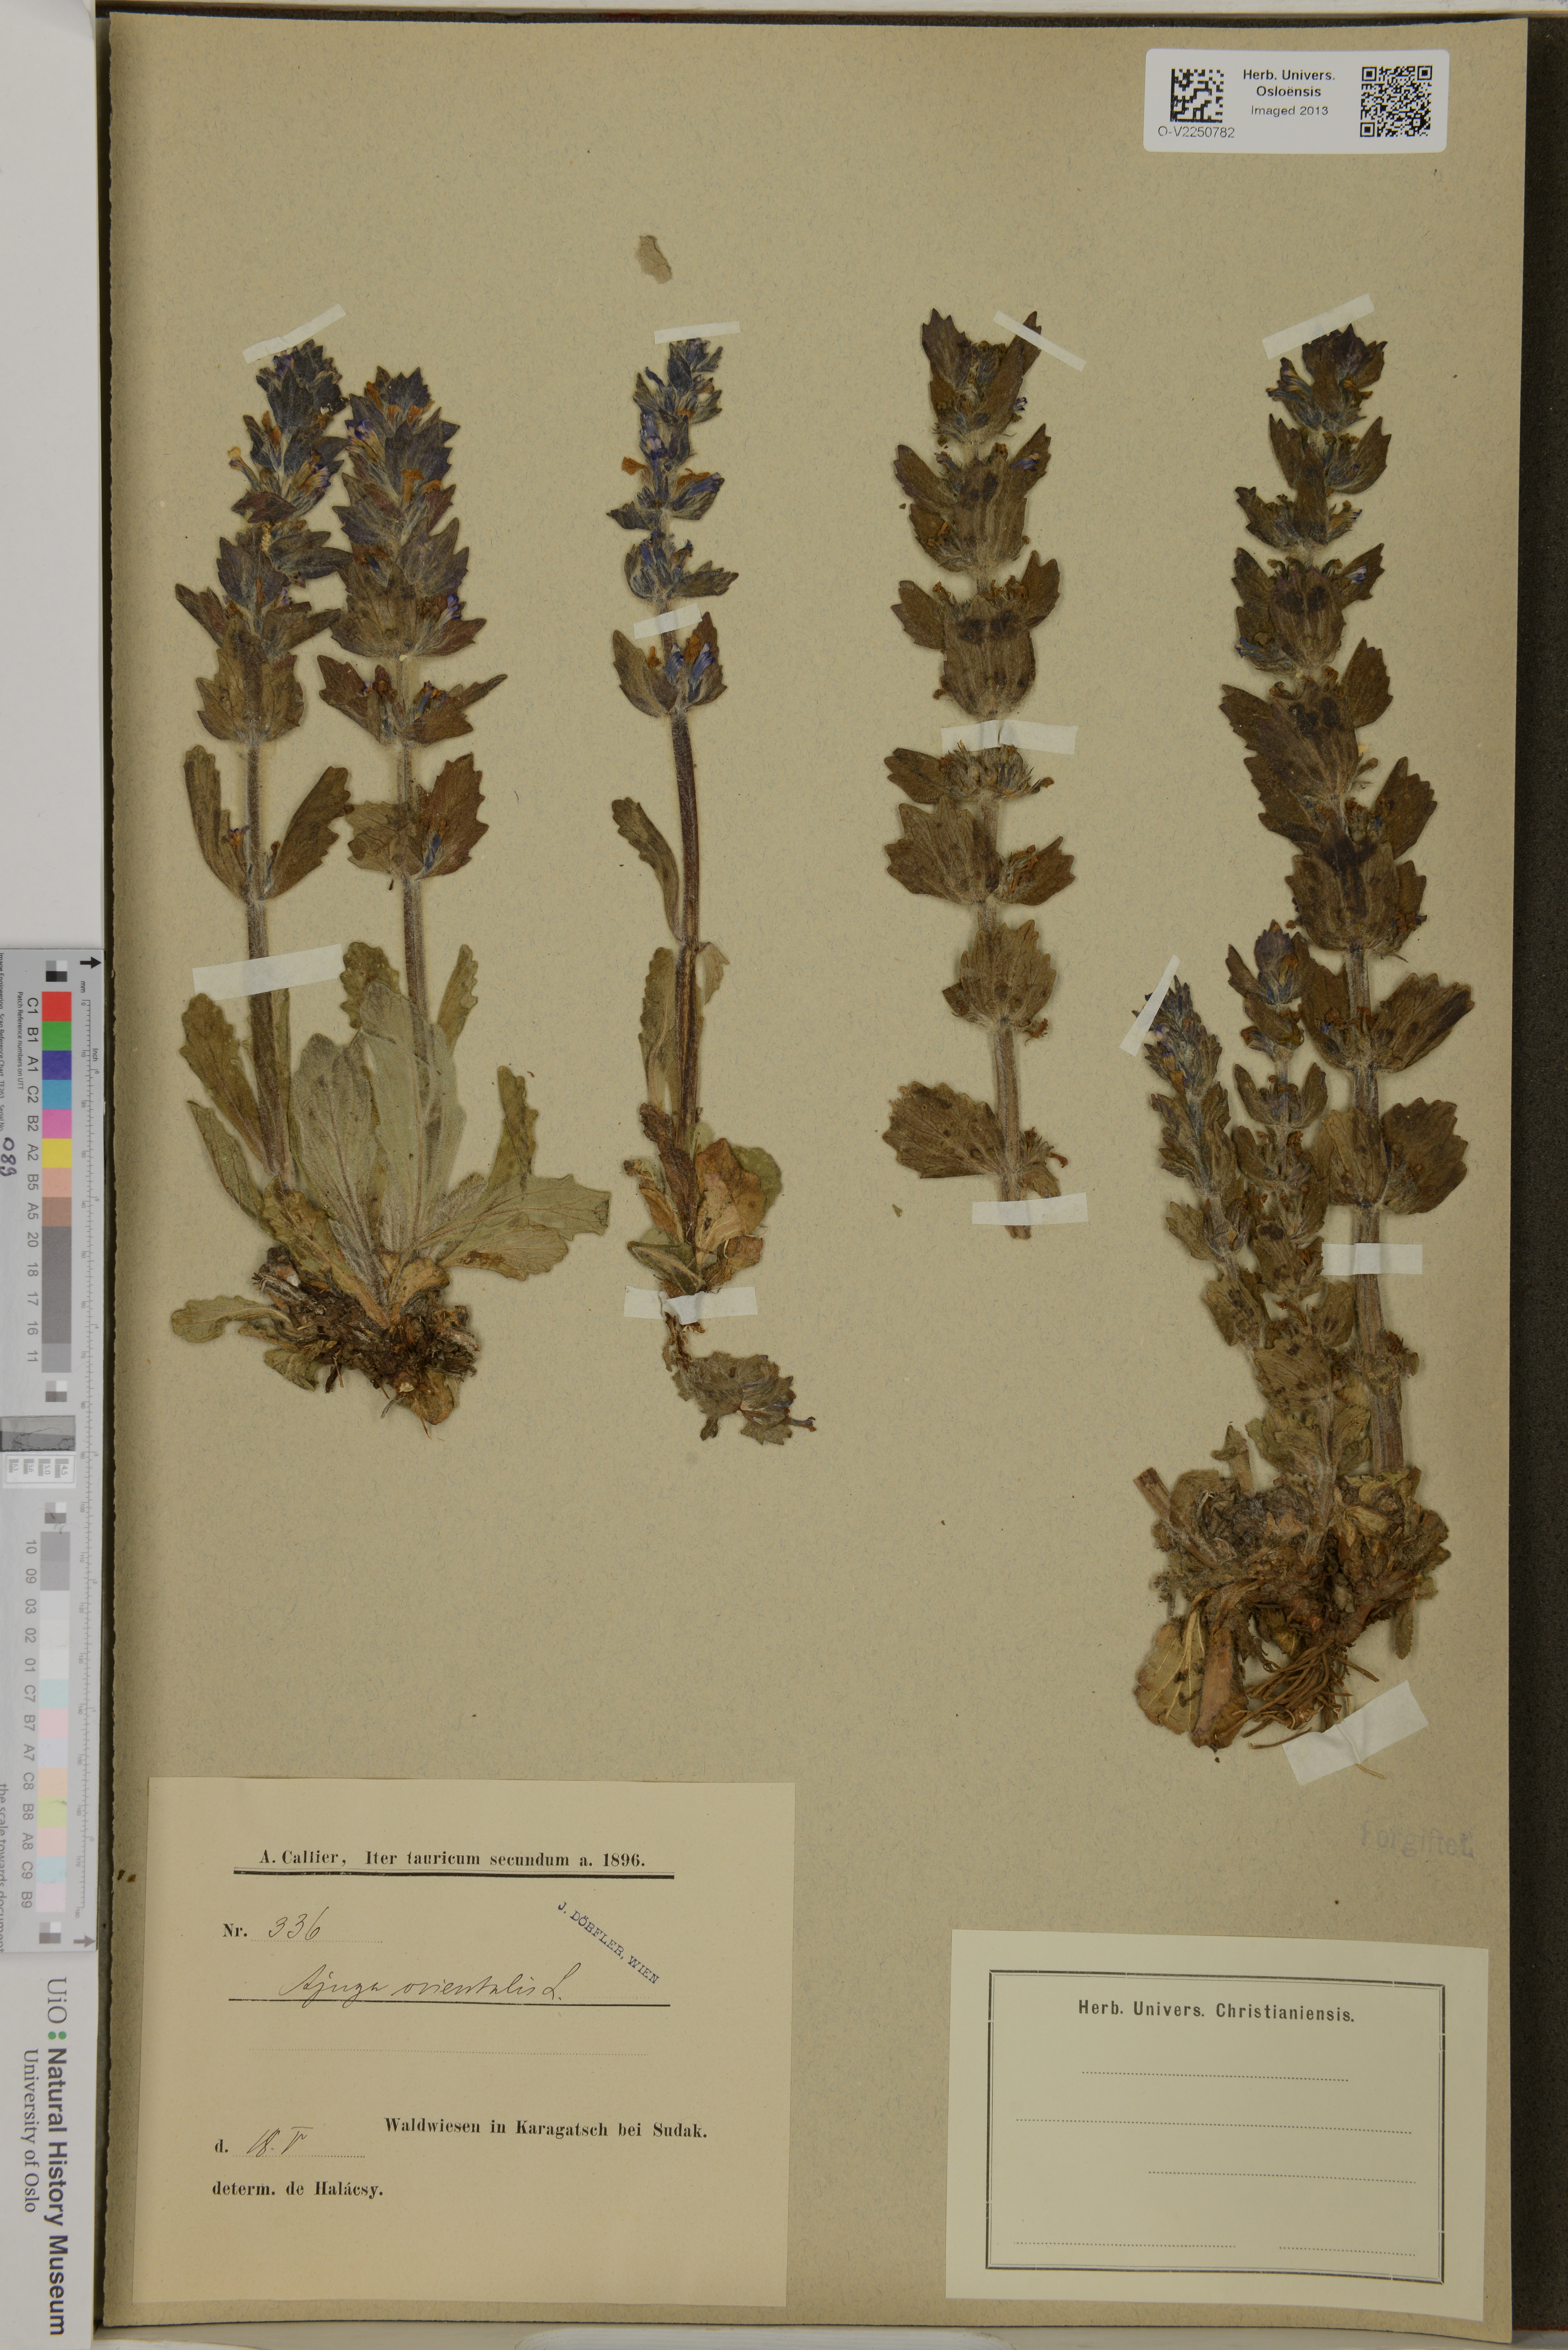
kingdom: Plantae
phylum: Tracheophyta
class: Magnoliopsida
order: Lamiales
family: Lamiaceae
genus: Ajuga
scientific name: Ajuga orientalis
